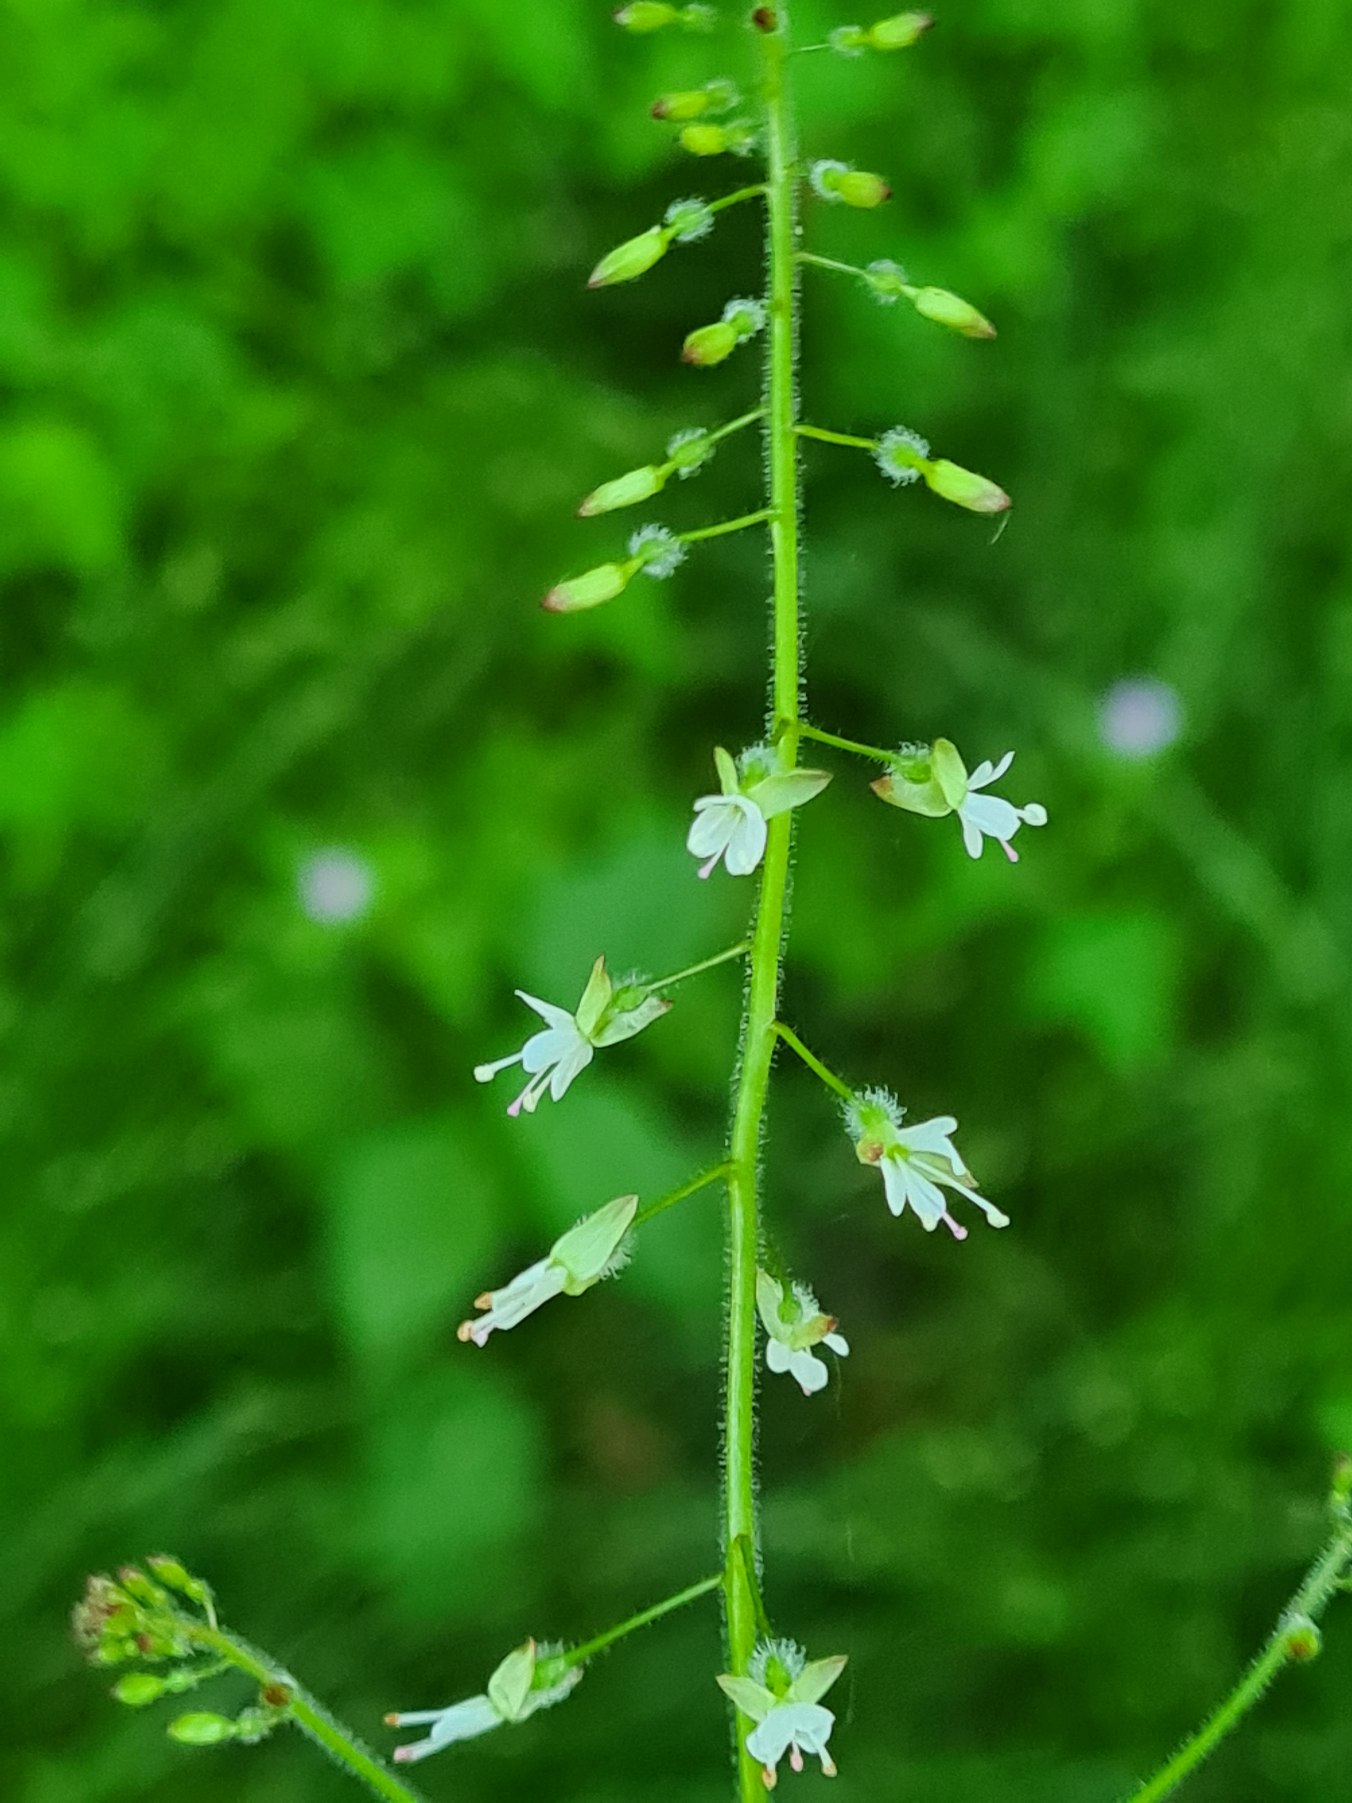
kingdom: Plantae
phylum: Tracheophyta
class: Magnoliopsida
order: Myrtales
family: Onagraceae
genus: Circaea
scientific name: Circaea lutetiana
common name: Dunet steffensurt
